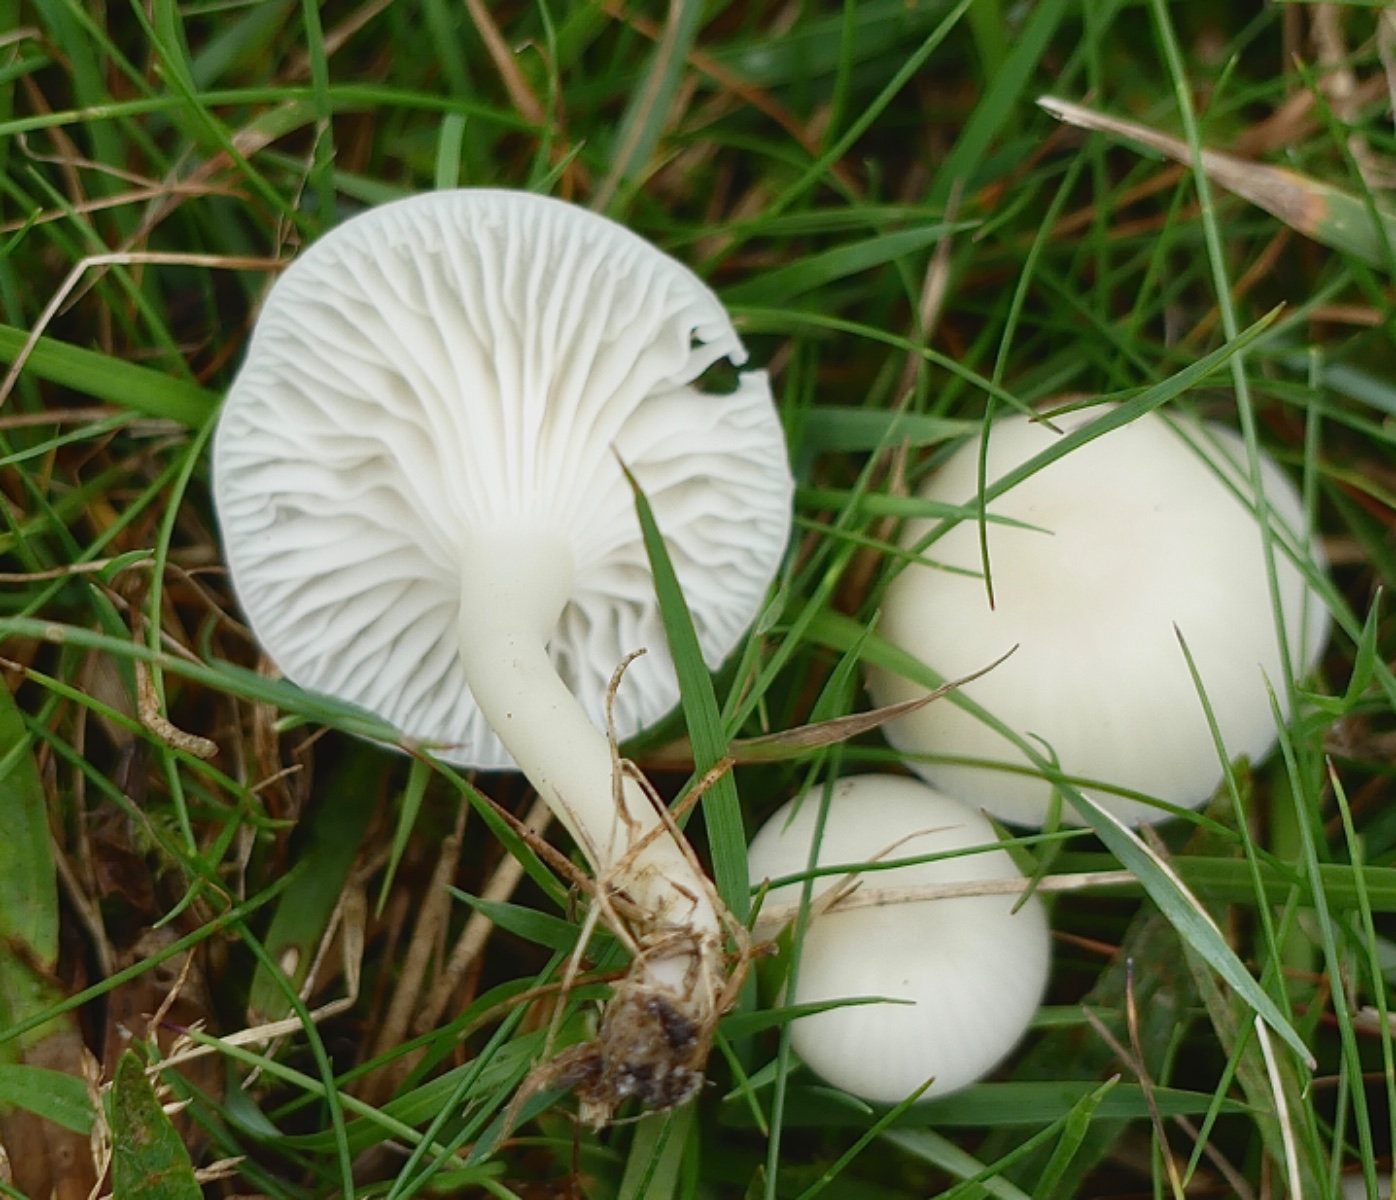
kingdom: Fungi
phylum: Basidiomycota
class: Agaricomycetes
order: Agaricales
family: Hygrophoraceae
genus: Cuphophyllus
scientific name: Cuphophyllus virgineus
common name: snehvid vokshat
